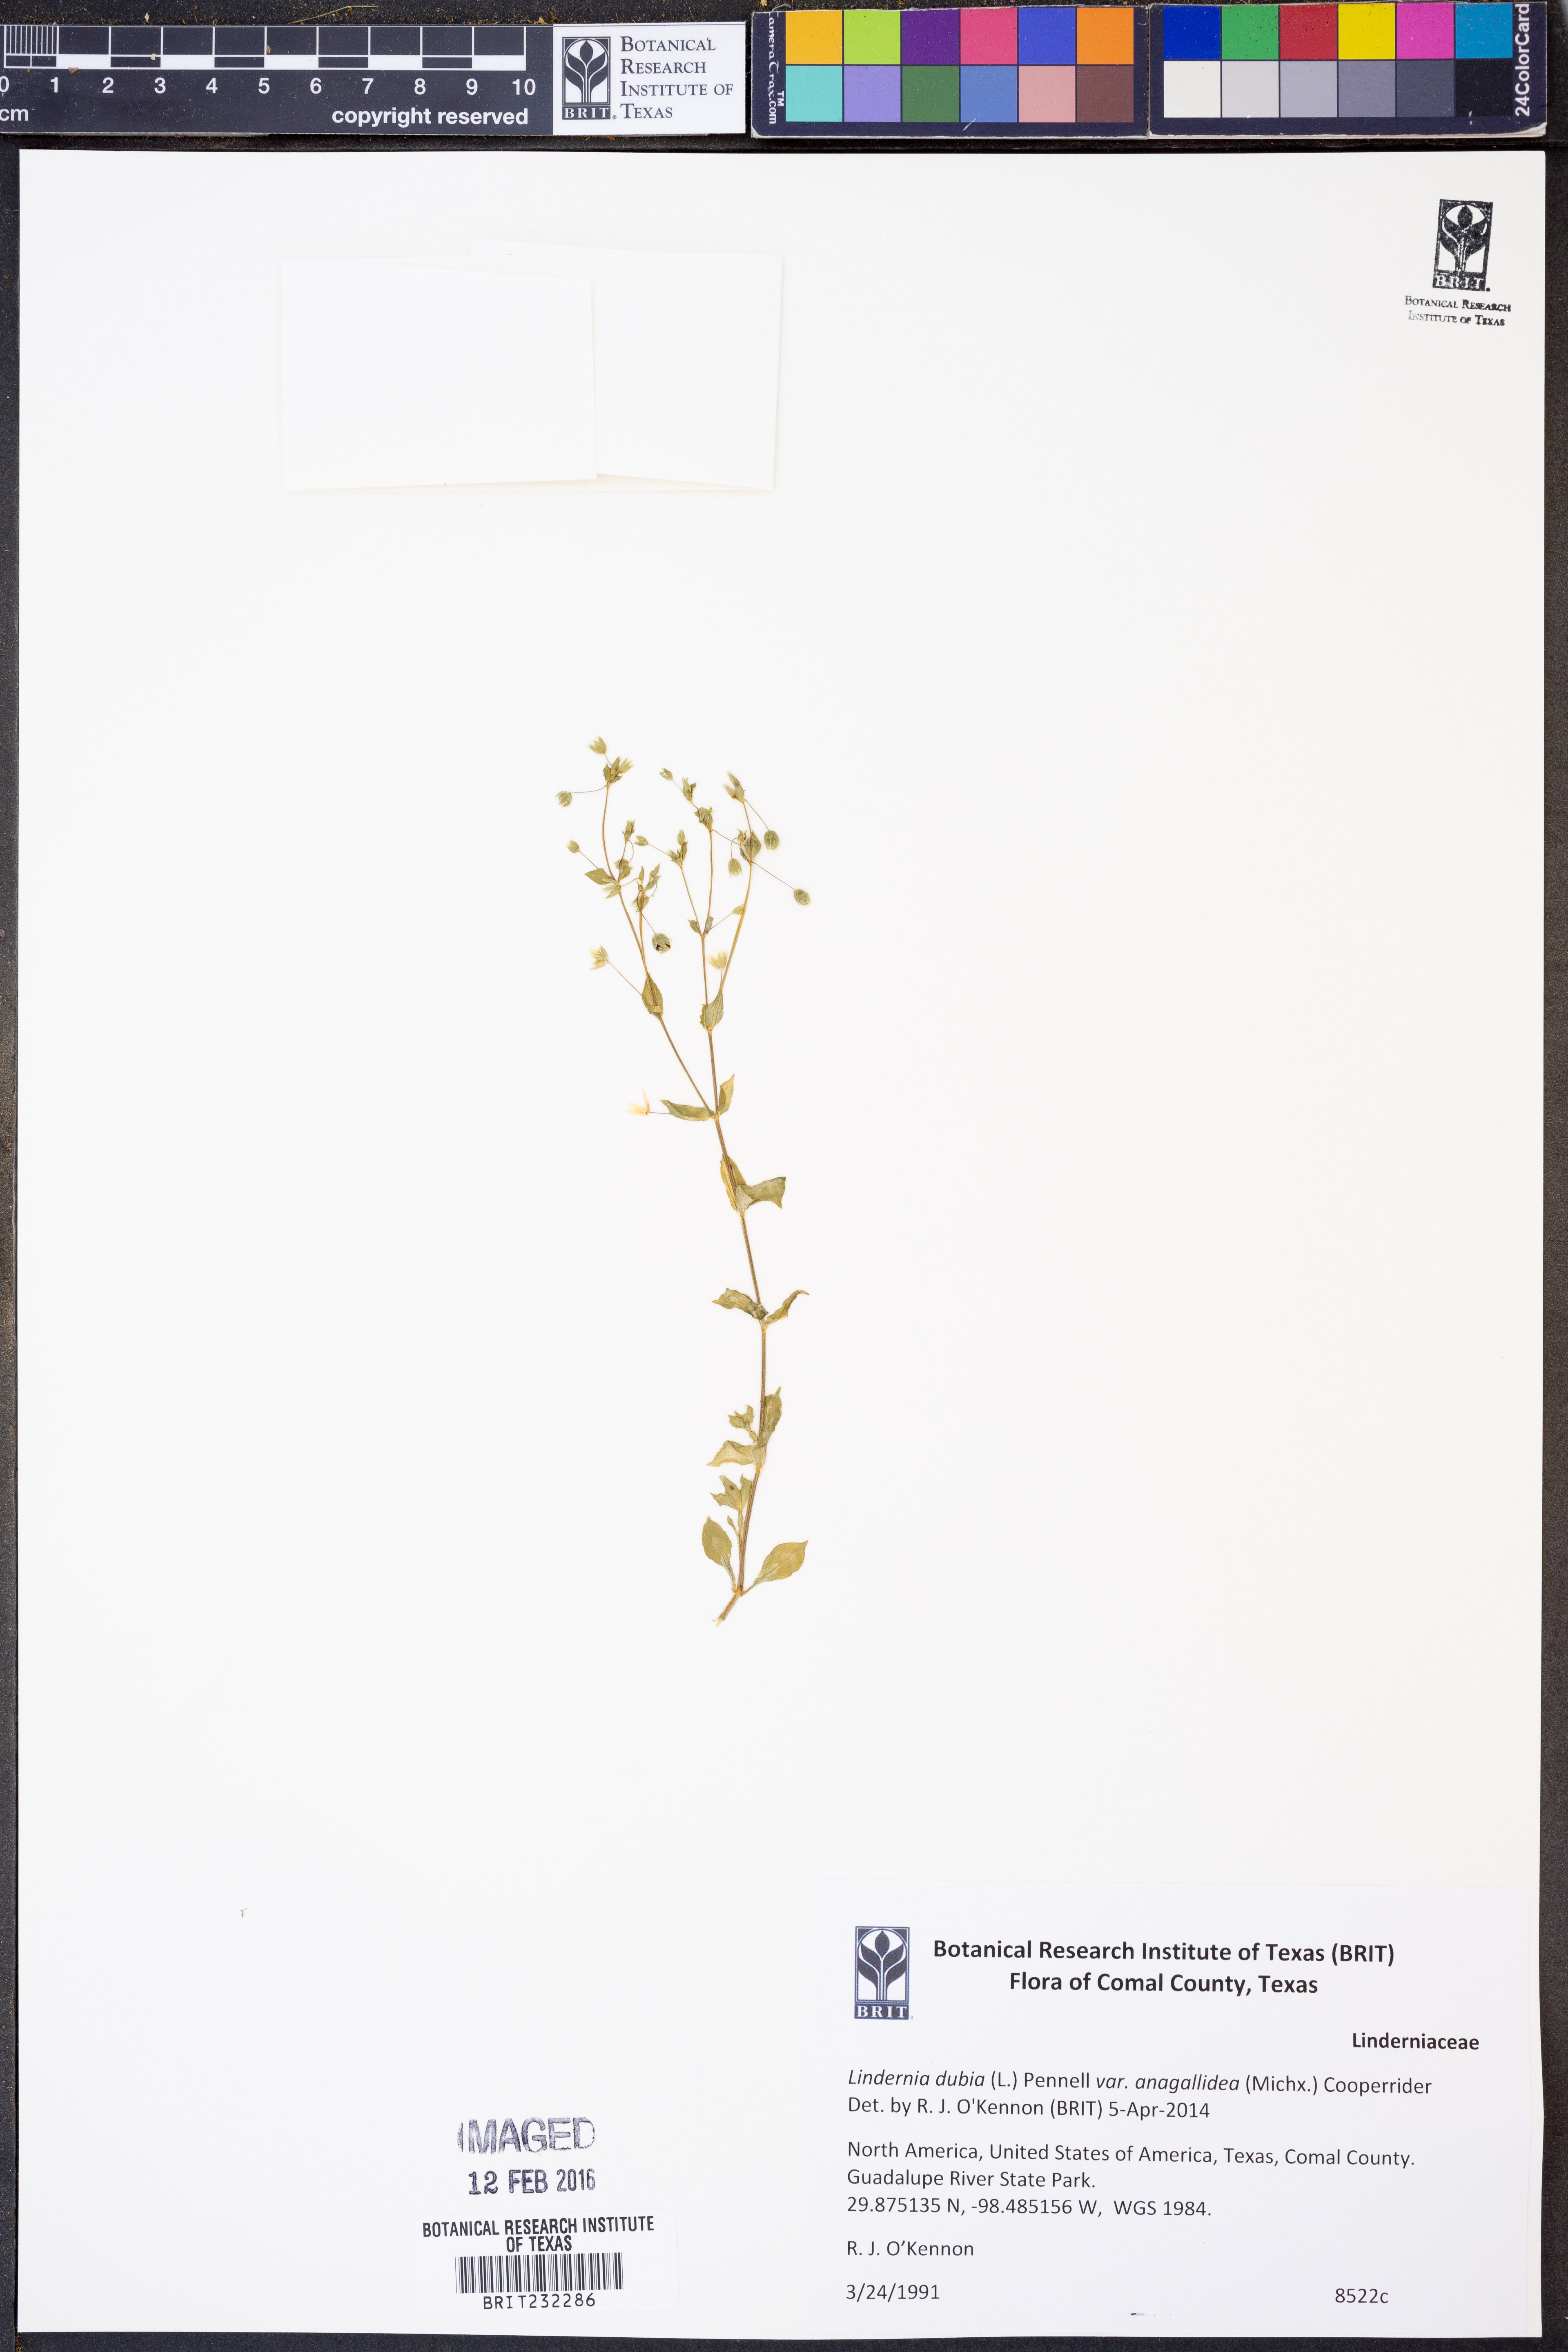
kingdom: Plantae
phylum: Tracheophyta
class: Magnoliopsida
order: Lamiales
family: Linderniaceae
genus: Lindernia
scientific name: Lindernia dubia
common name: Annual false pimpernel
